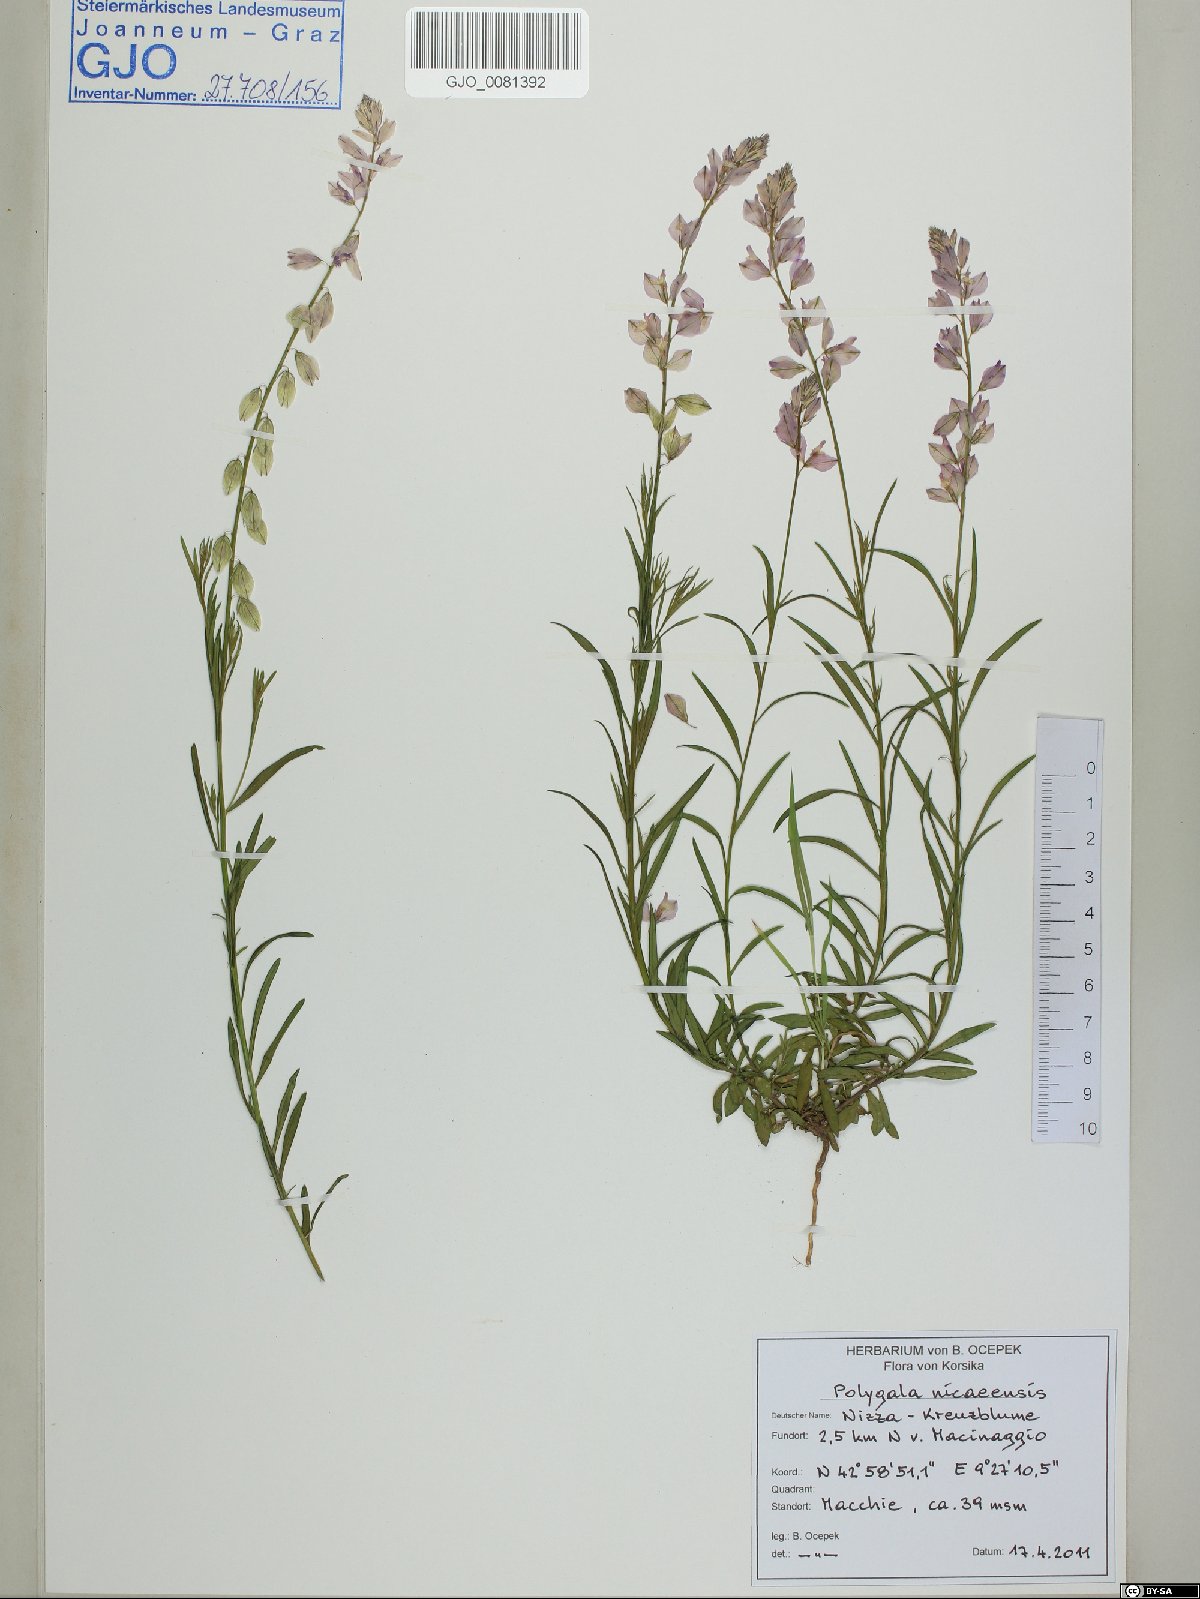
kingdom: Plantae
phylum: Tracheophyta
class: Magnoliopsida
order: Fabales
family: Polygalaceae
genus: Polygala
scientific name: Polygala nicaeensis
